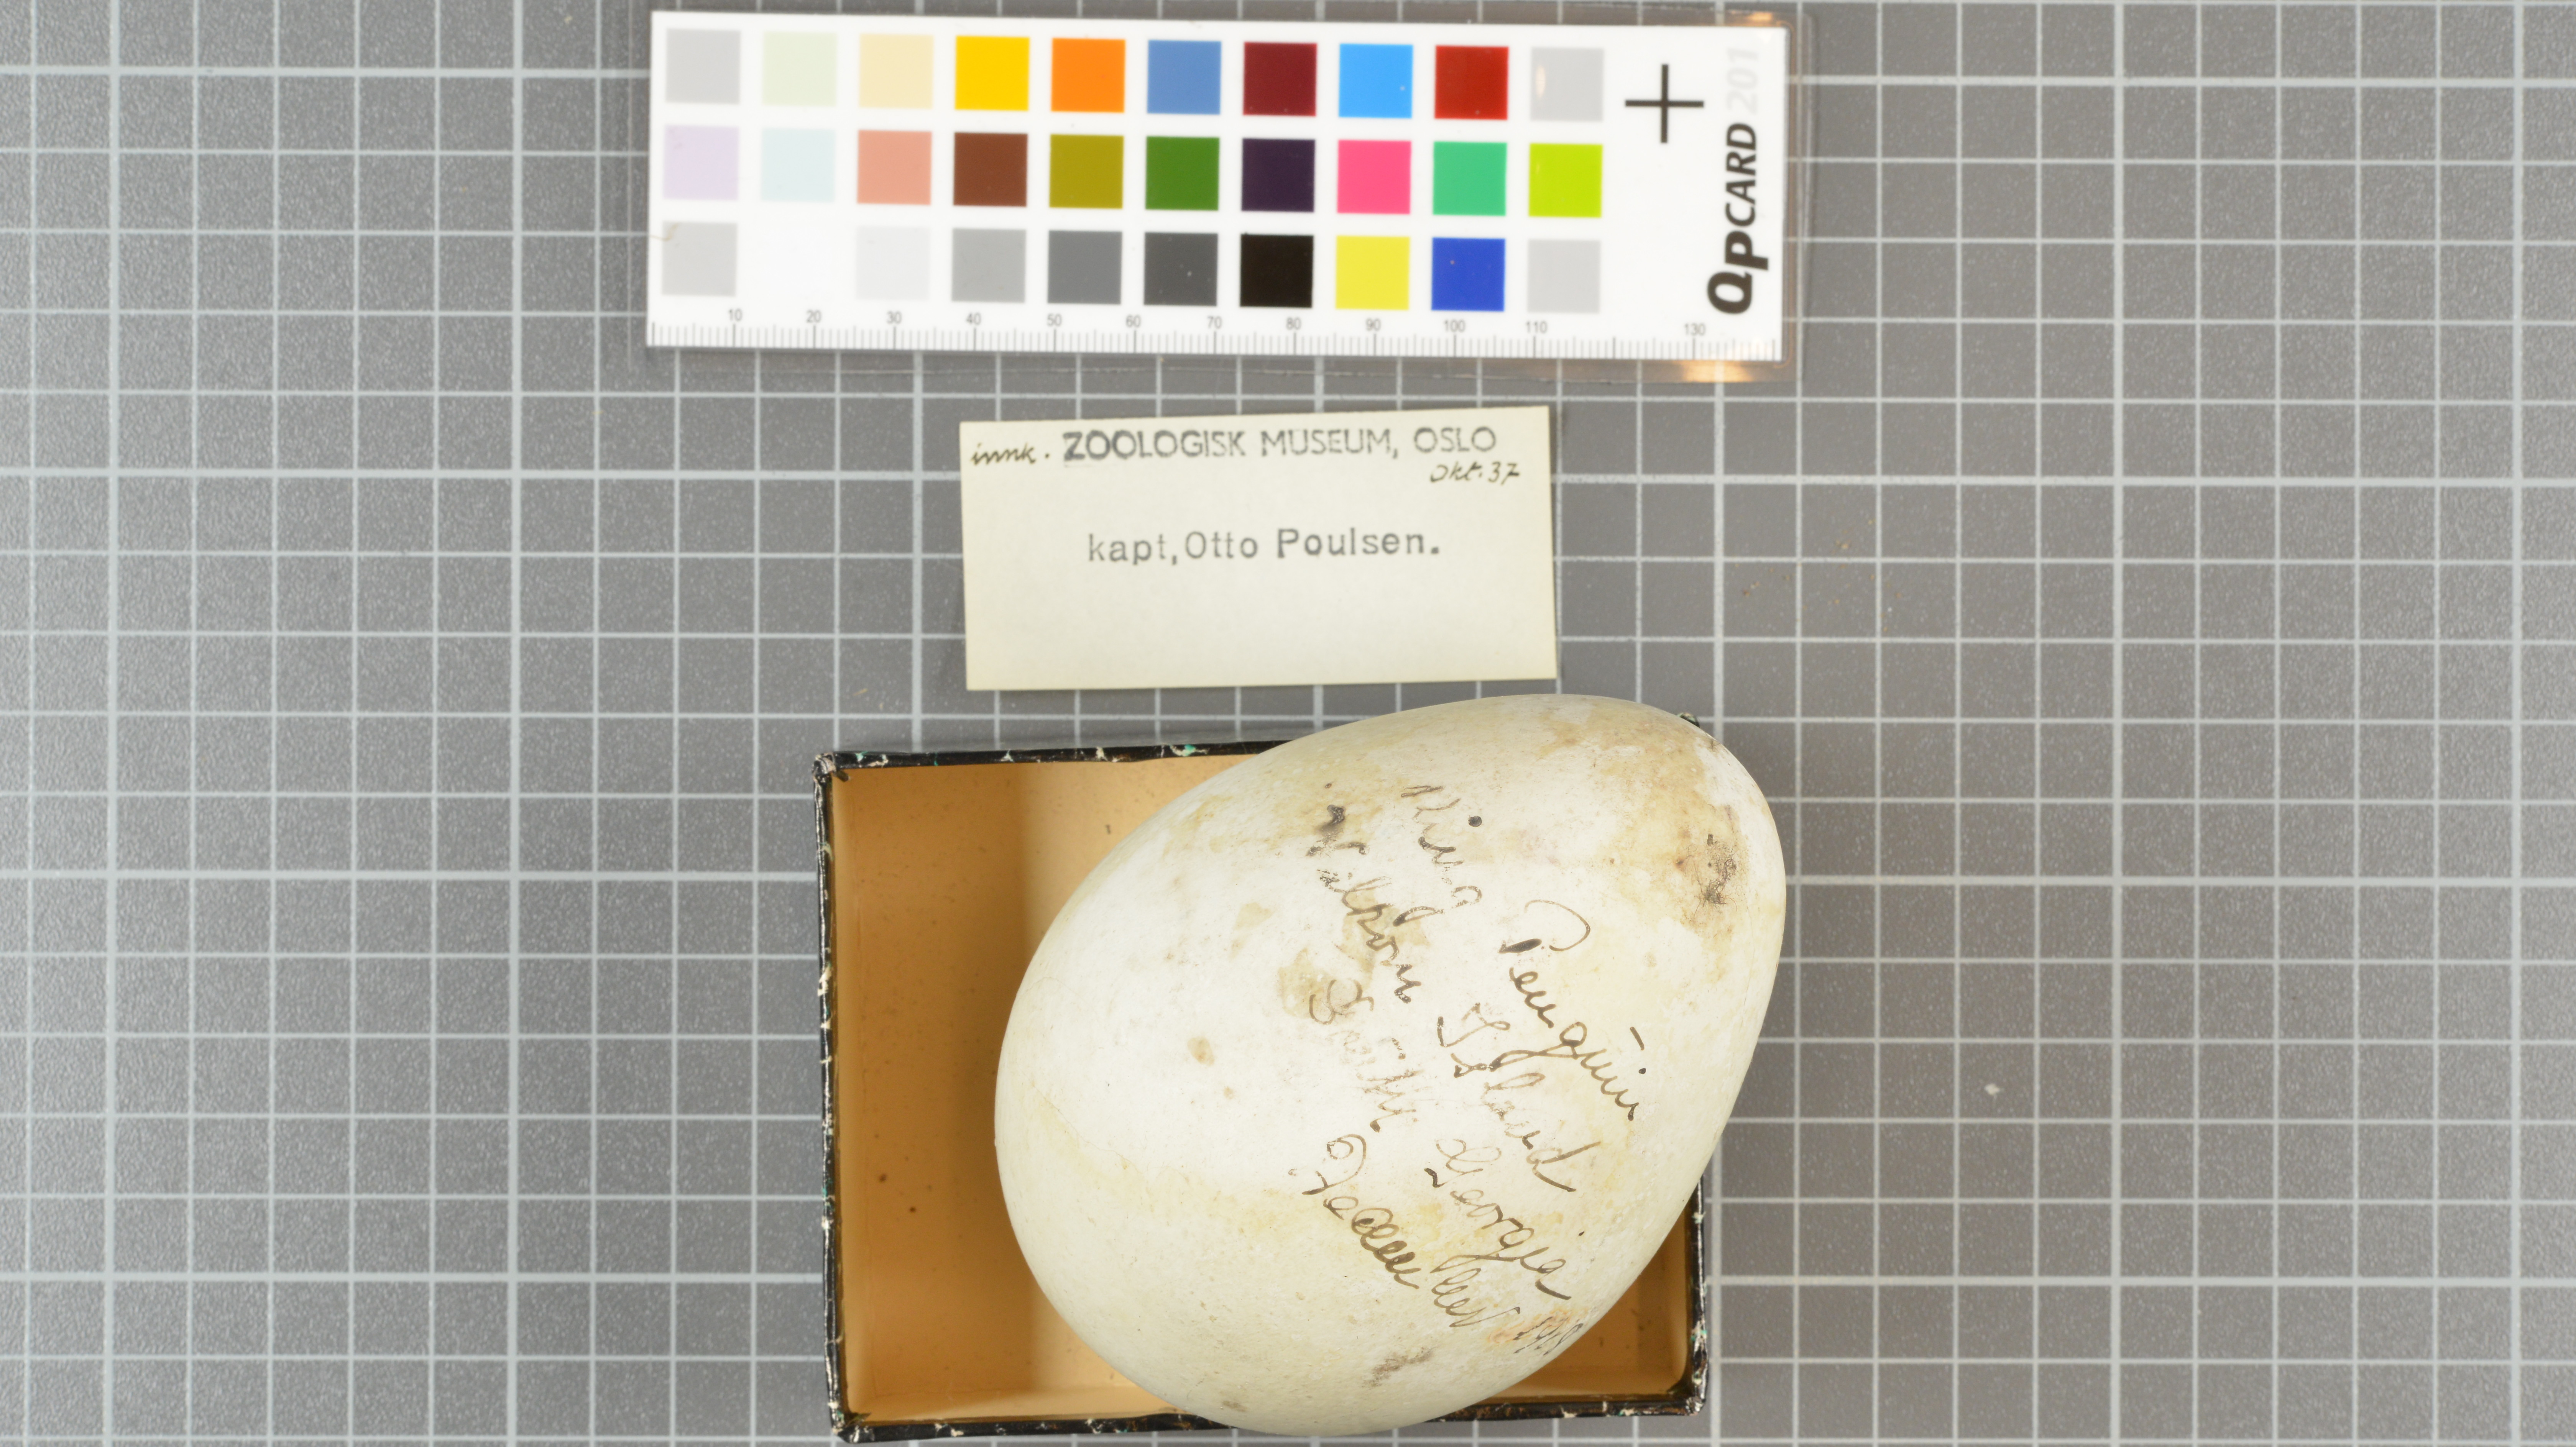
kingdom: Animalia
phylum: Chordata
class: Aves
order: Sphenisciformes
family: Spheniscidae
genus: Aptenodytes
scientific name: Aptenodytes patagonicus
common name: King penguin
